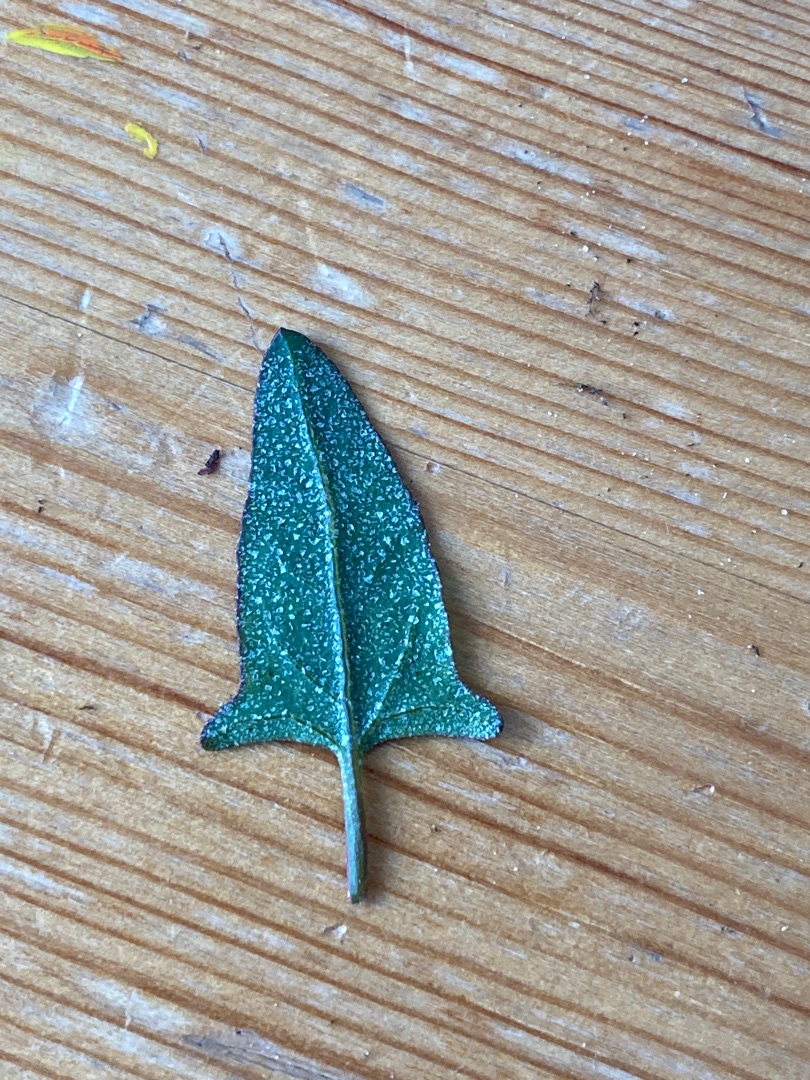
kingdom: Plantae
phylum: Tracheophyta
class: Magnoliopsida
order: Caryophyllales
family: Amaranthaceae
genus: Atriplex
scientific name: Atriplex prostrata
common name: Spyd-mælde
